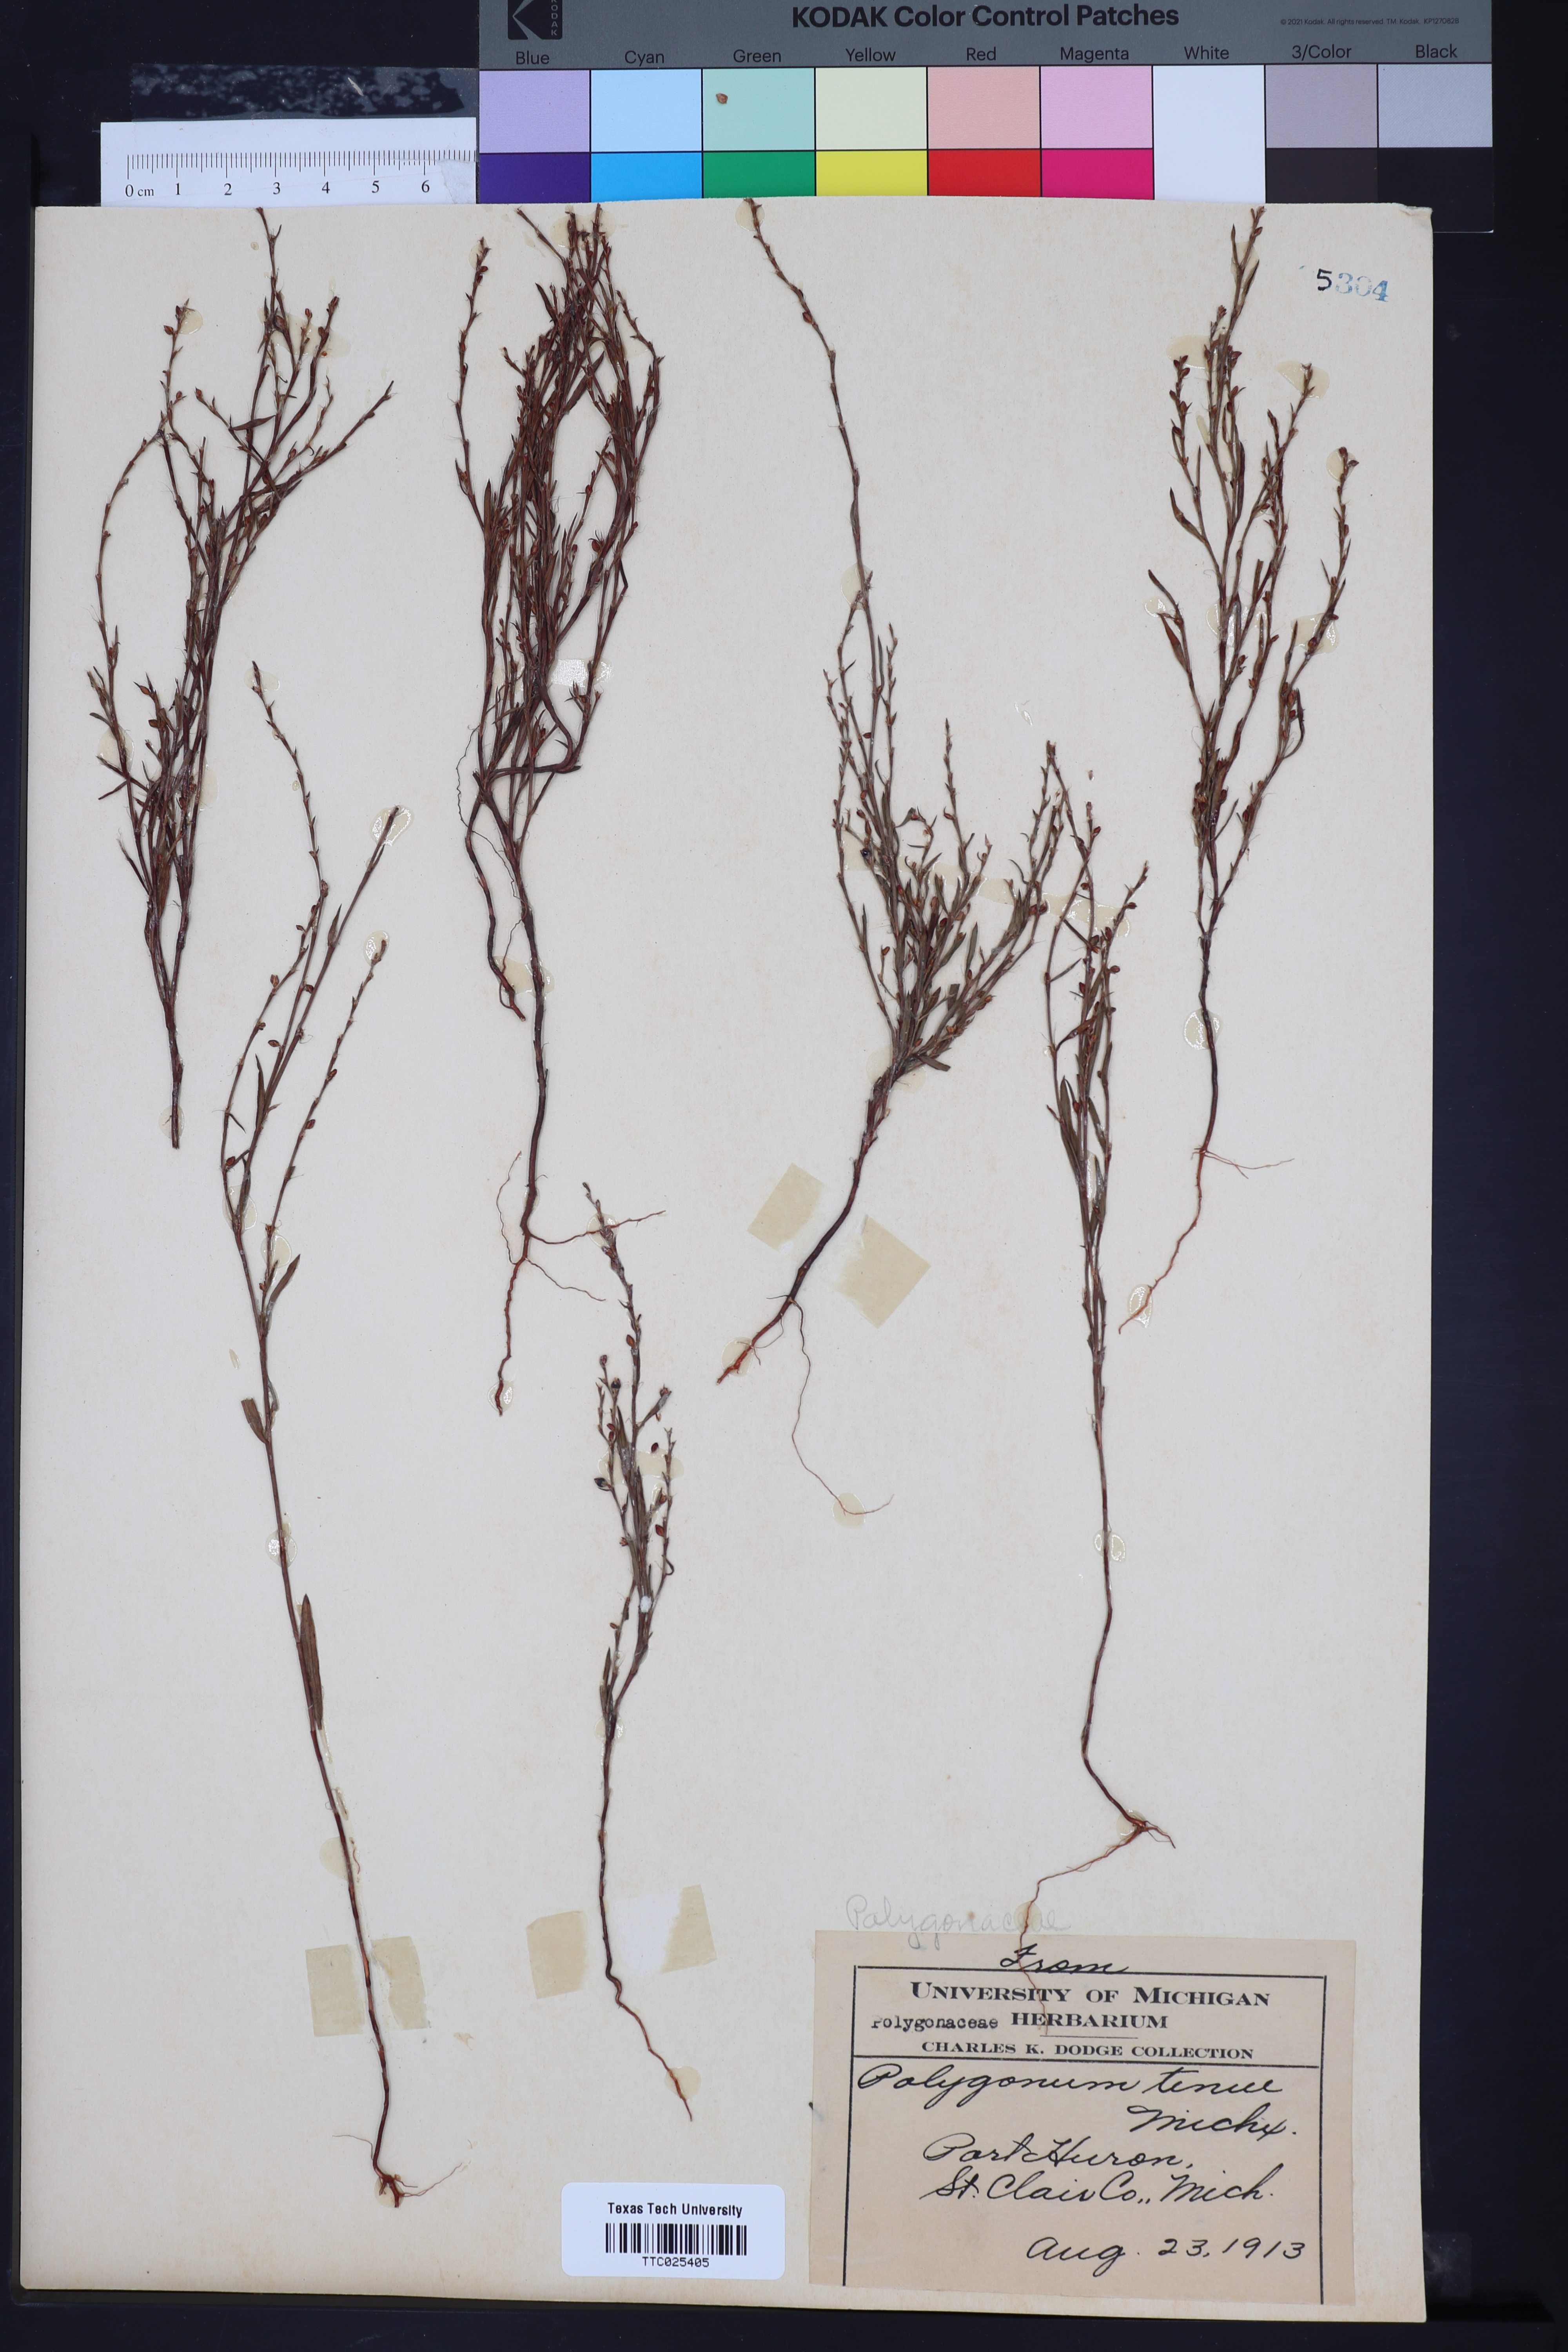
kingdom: Plantae
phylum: Tracheophyta
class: Magnoliopsida
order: Caryophyllales
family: Polygonaceae
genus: Polygonum
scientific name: Polygonum tenue
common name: Pleat-leaved knotweed
